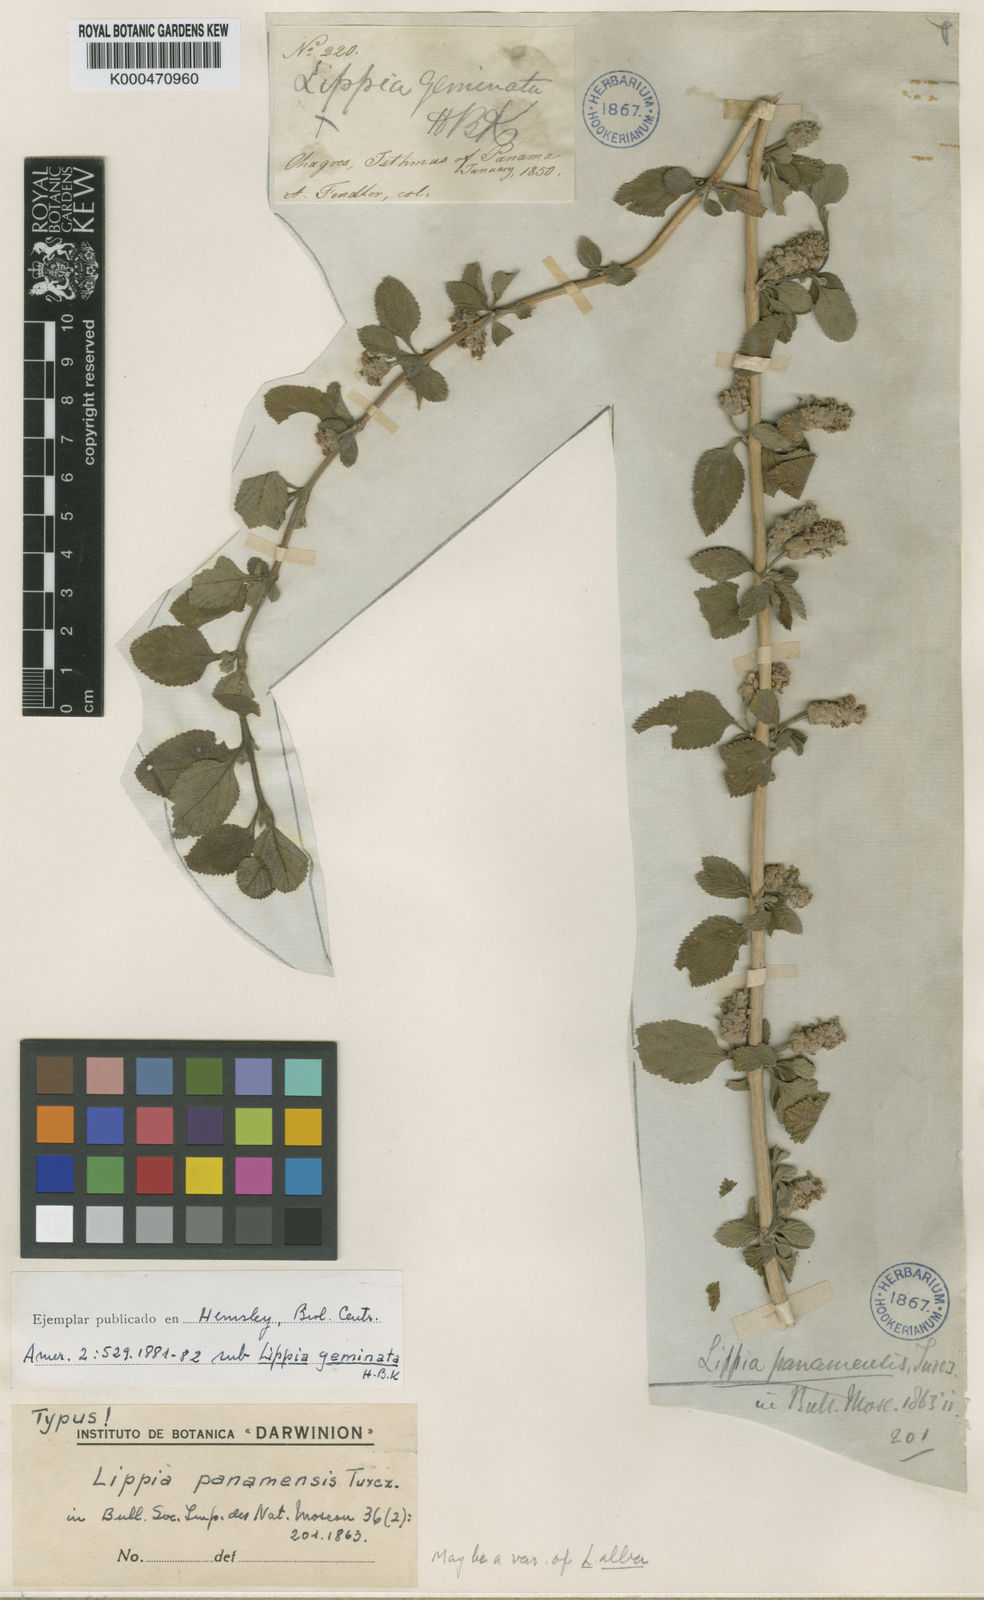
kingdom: Plantae
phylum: Tracheophyta
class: Magnoliopsida
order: Lamiales
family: Verbenaceae
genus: Lippia
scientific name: Lippia alba
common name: Bushy matgrass
